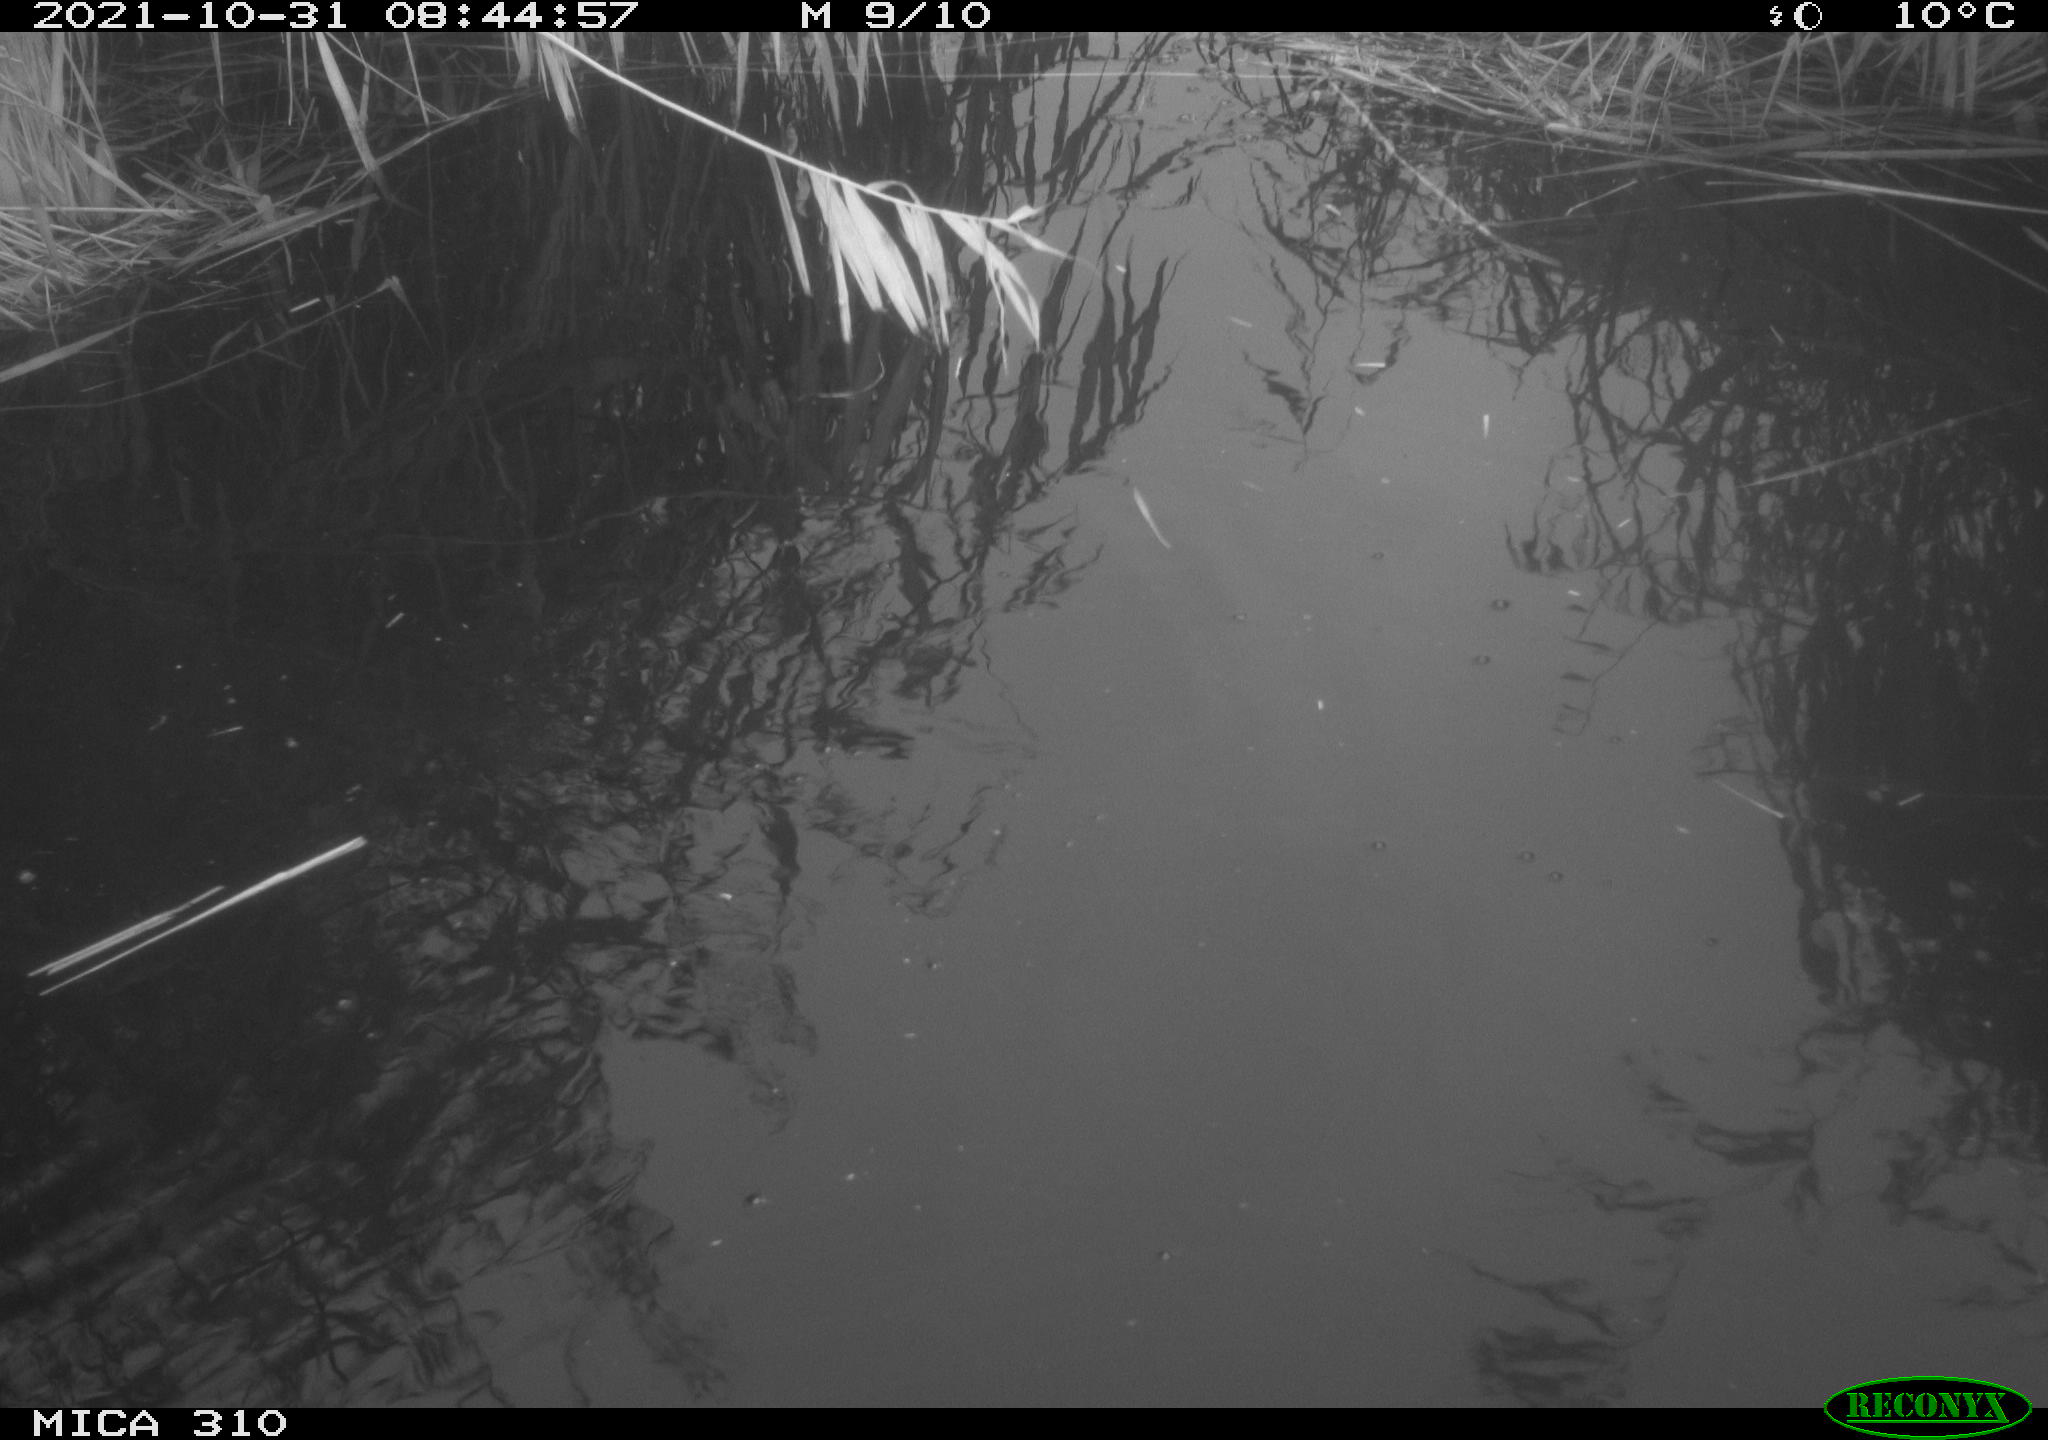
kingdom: Animalia
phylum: Chordata
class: Aves
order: Gruiformes
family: Rallidae
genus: Gallinula
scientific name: Gallinula chloropus
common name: Common moorhen
